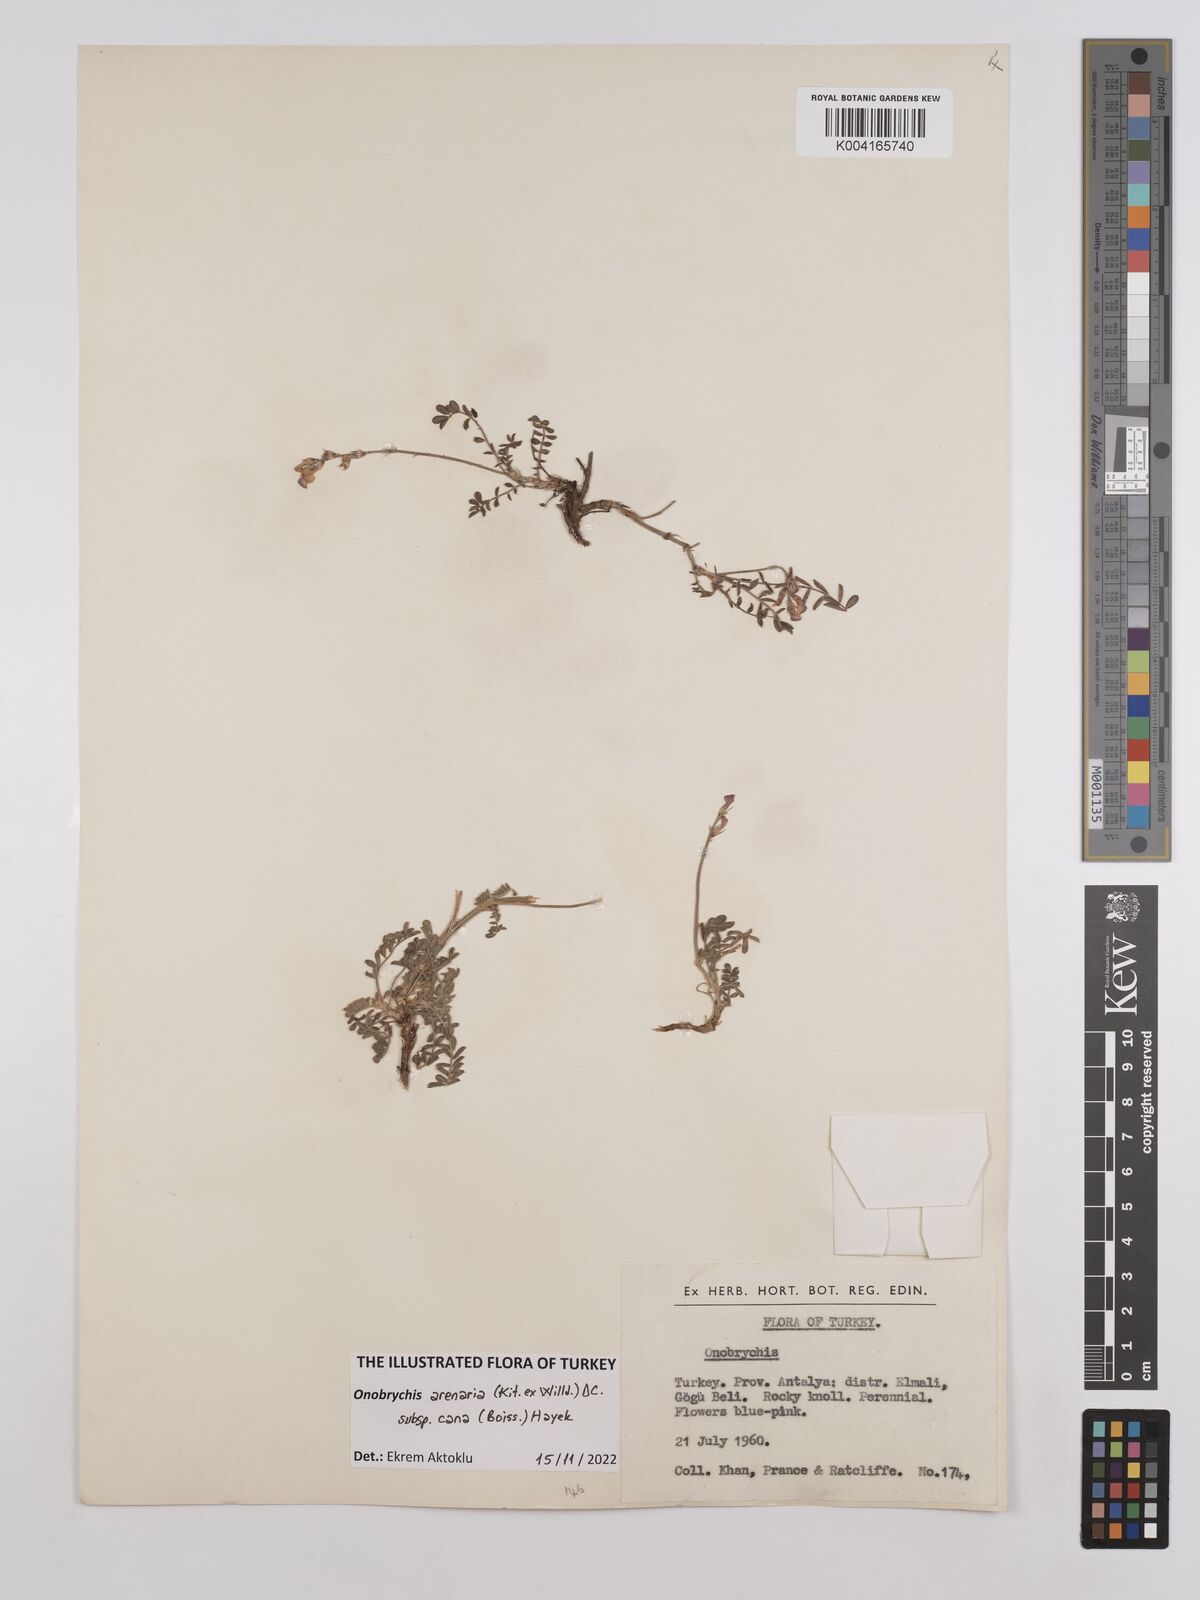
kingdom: Plantae
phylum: Tracheophyta
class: Magnoliopsida
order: Fabales
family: Fabaceae
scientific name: Fabaceae
